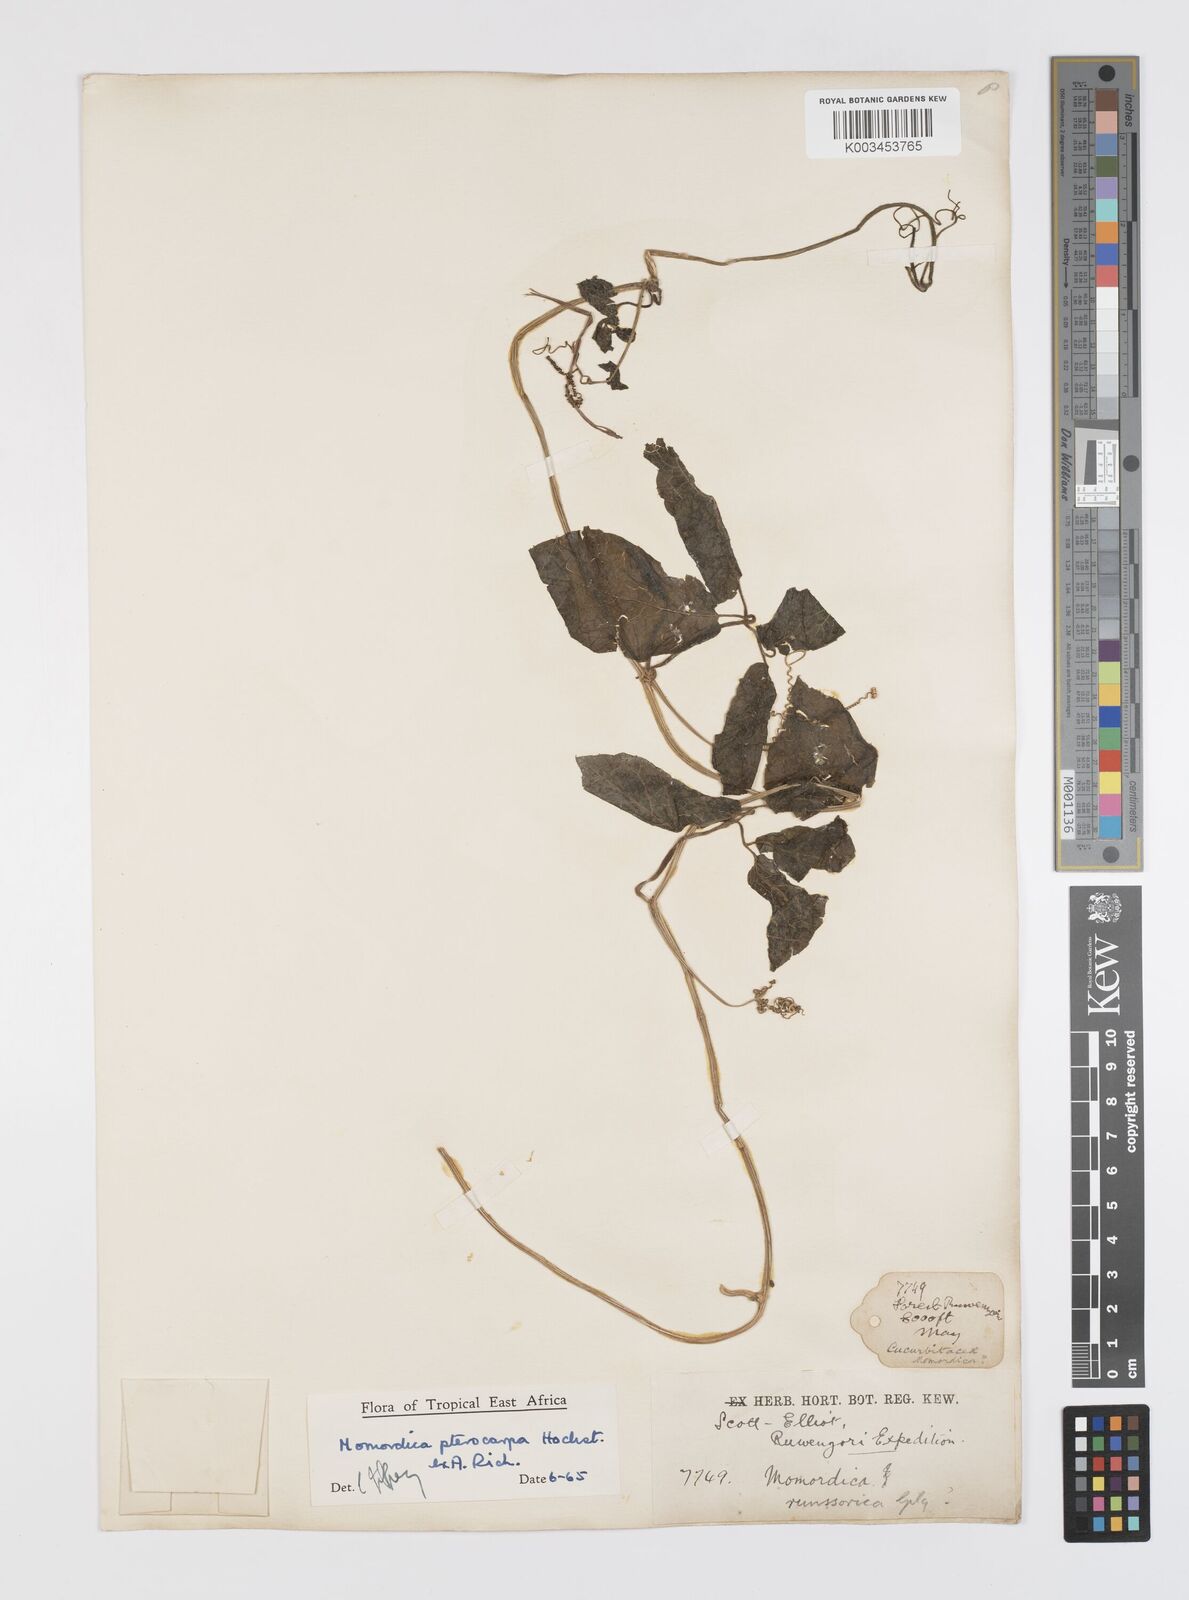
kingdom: Plantae
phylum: Tracheophyta
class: Magnoliopsida
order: Cucurbitales
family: Cucurbitaceae
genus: Momordica
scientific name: Momordica pterocarpa
